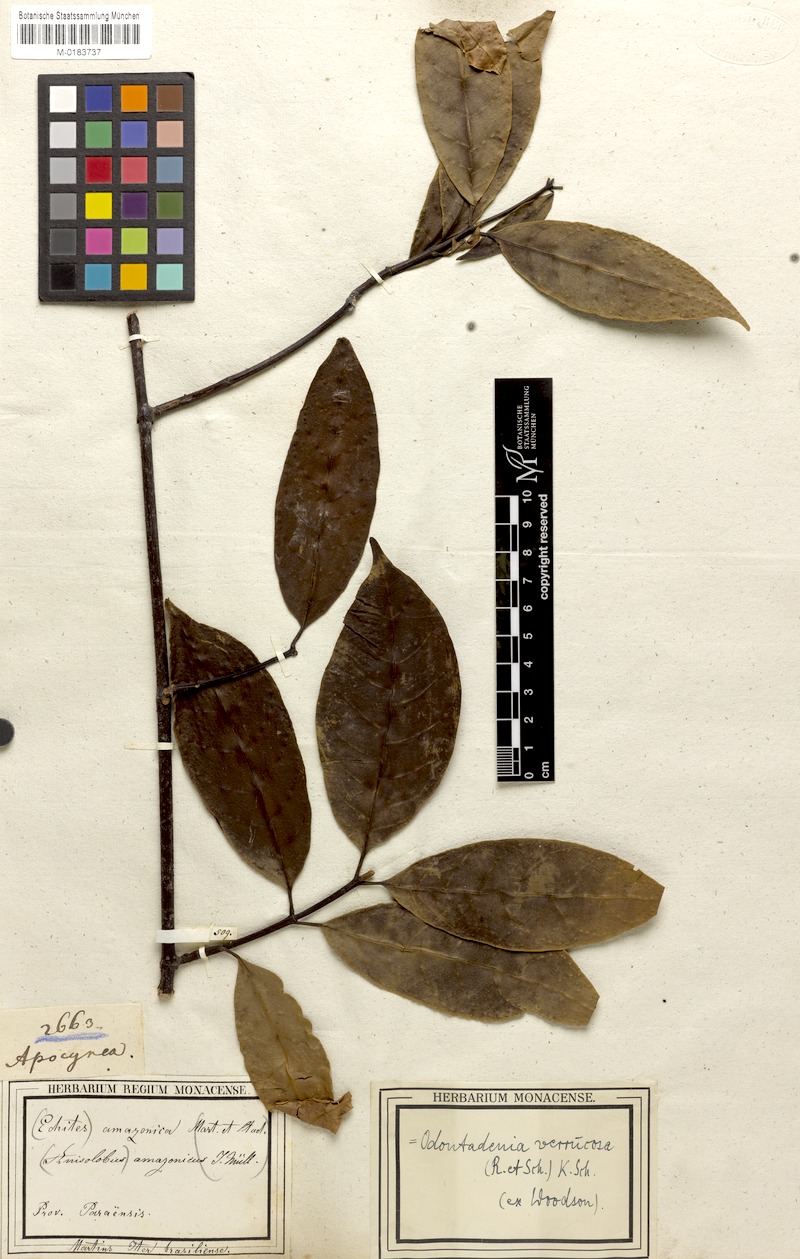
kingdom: Plantae
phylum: Tracheophyta
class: Magnoliopsida
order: Gentianales
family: Apocynaceae
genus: Odontadenia
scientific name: Odontadenia verrucosa
